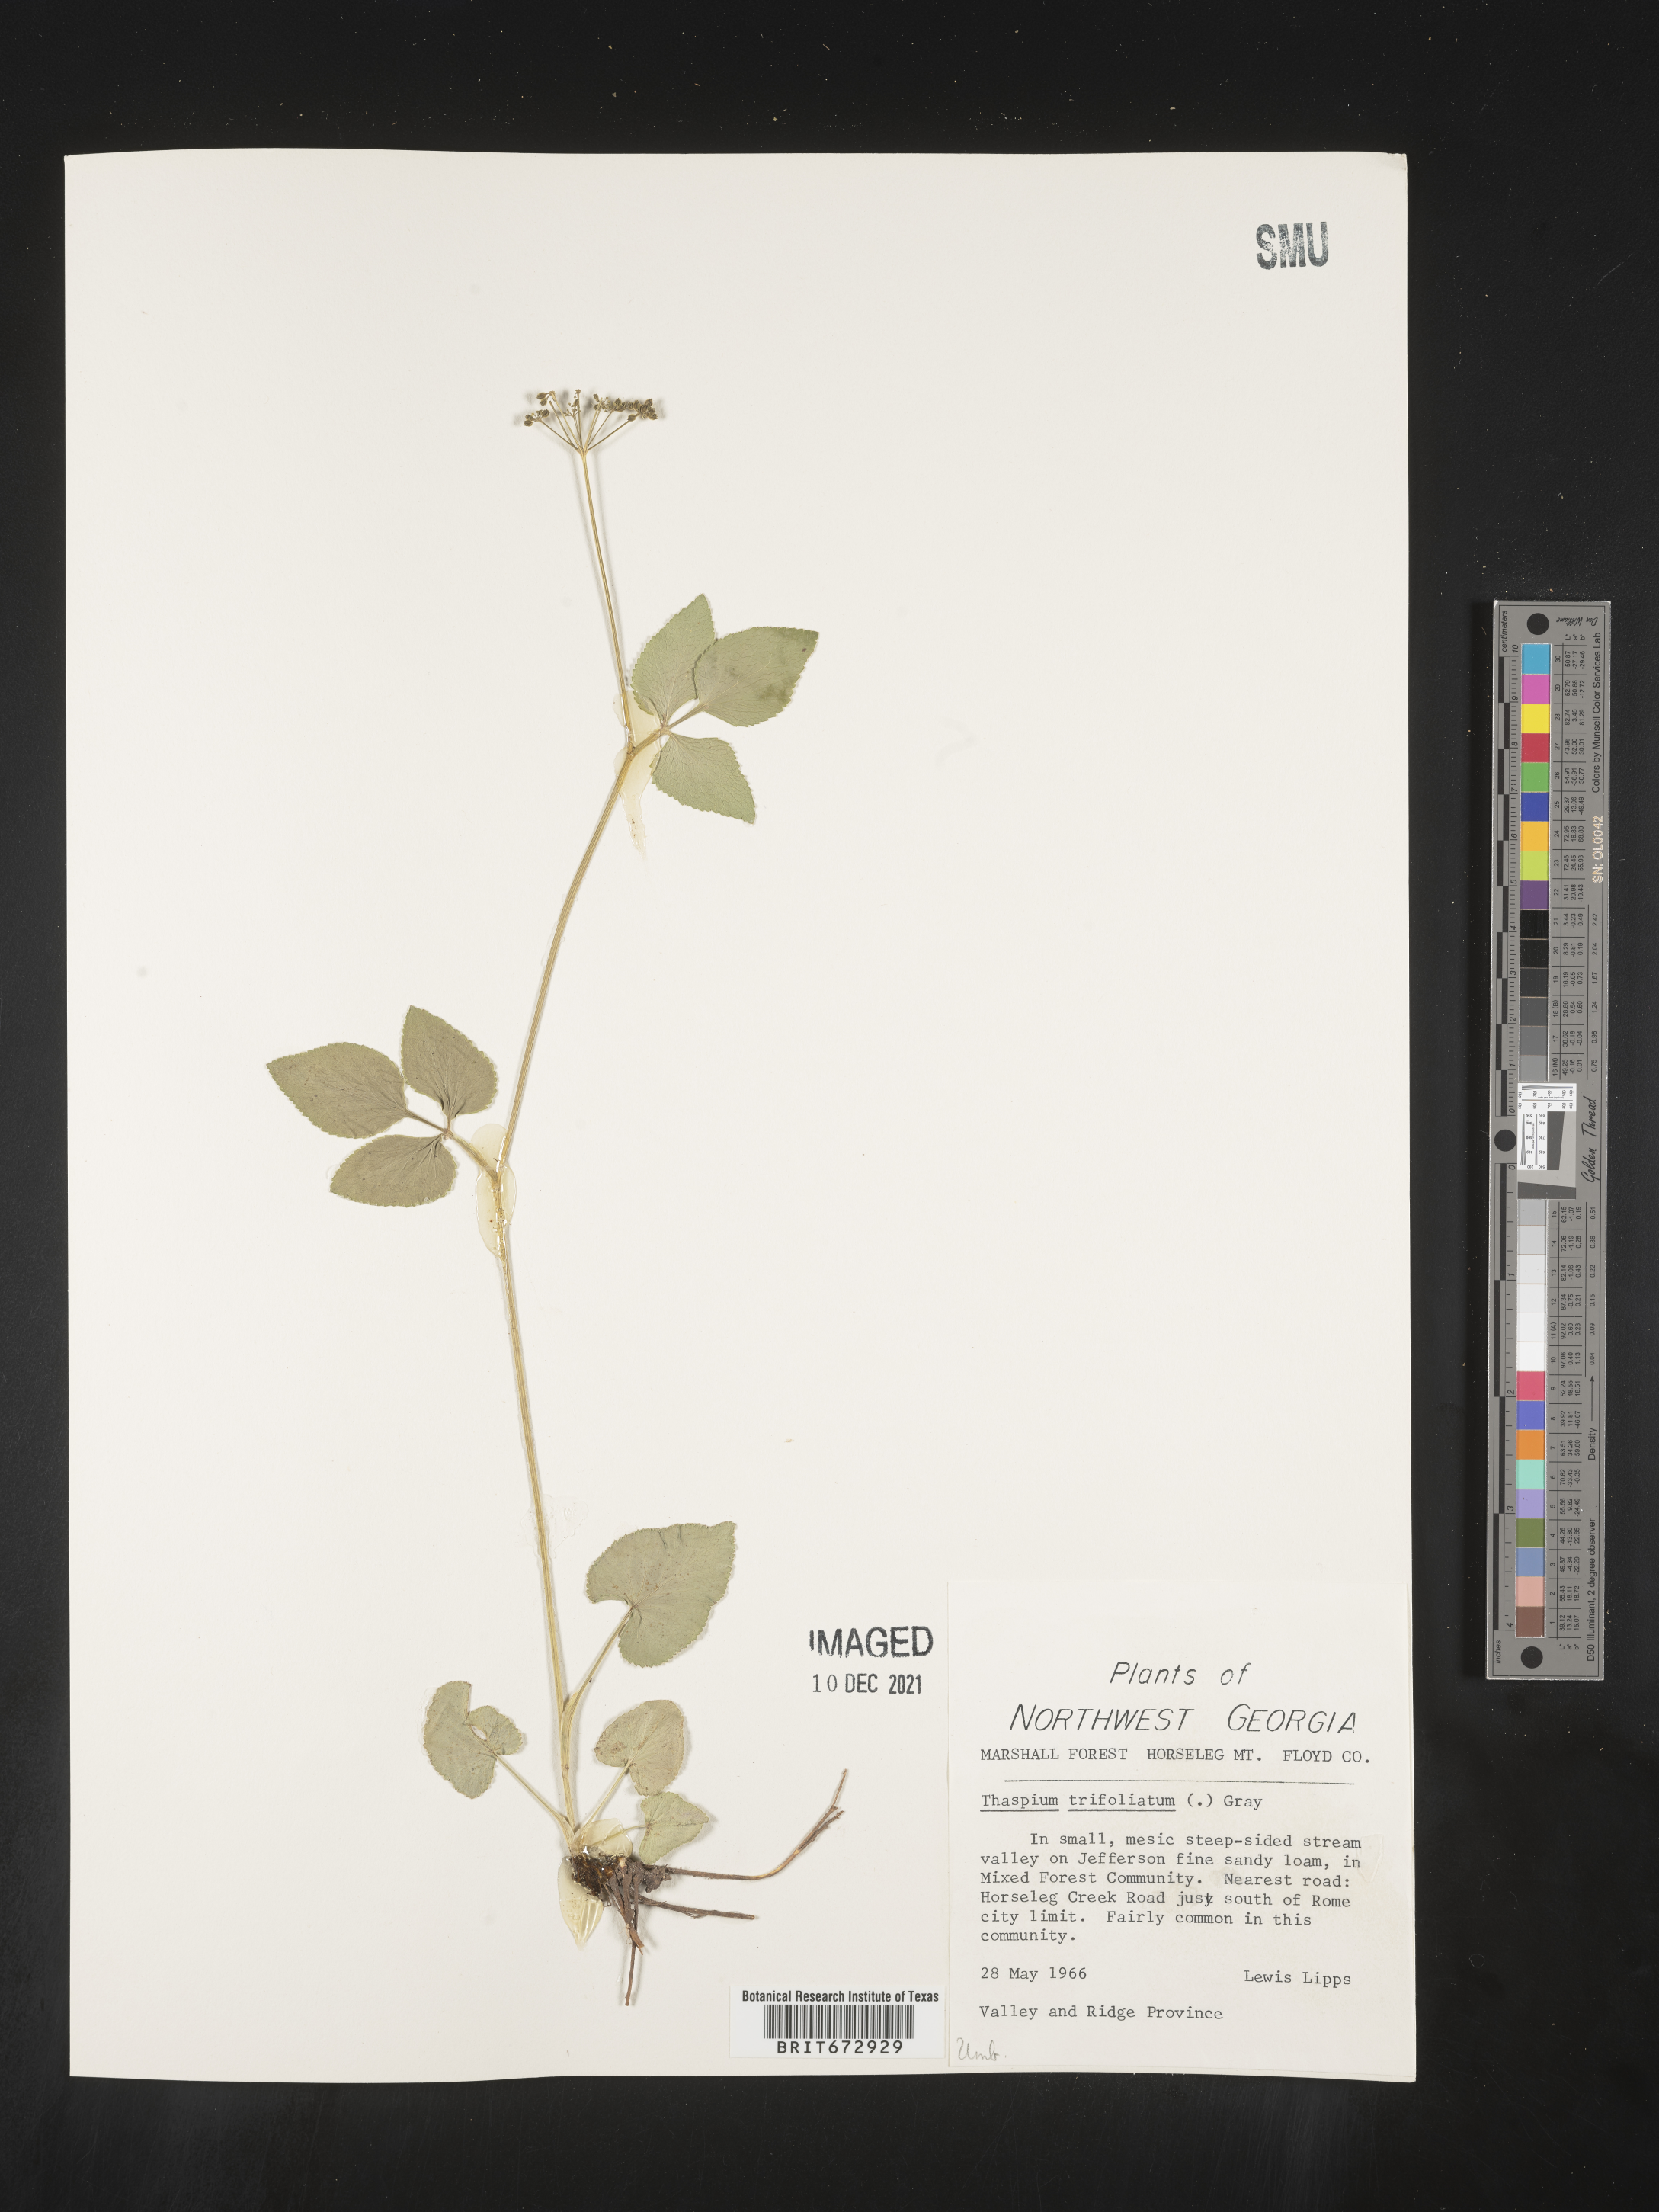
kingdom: Plantae
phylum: Tracheophyta
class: Magnoliopsida
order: Apiales
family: Apiaceae
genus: Thaspium
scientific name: Thaspium
